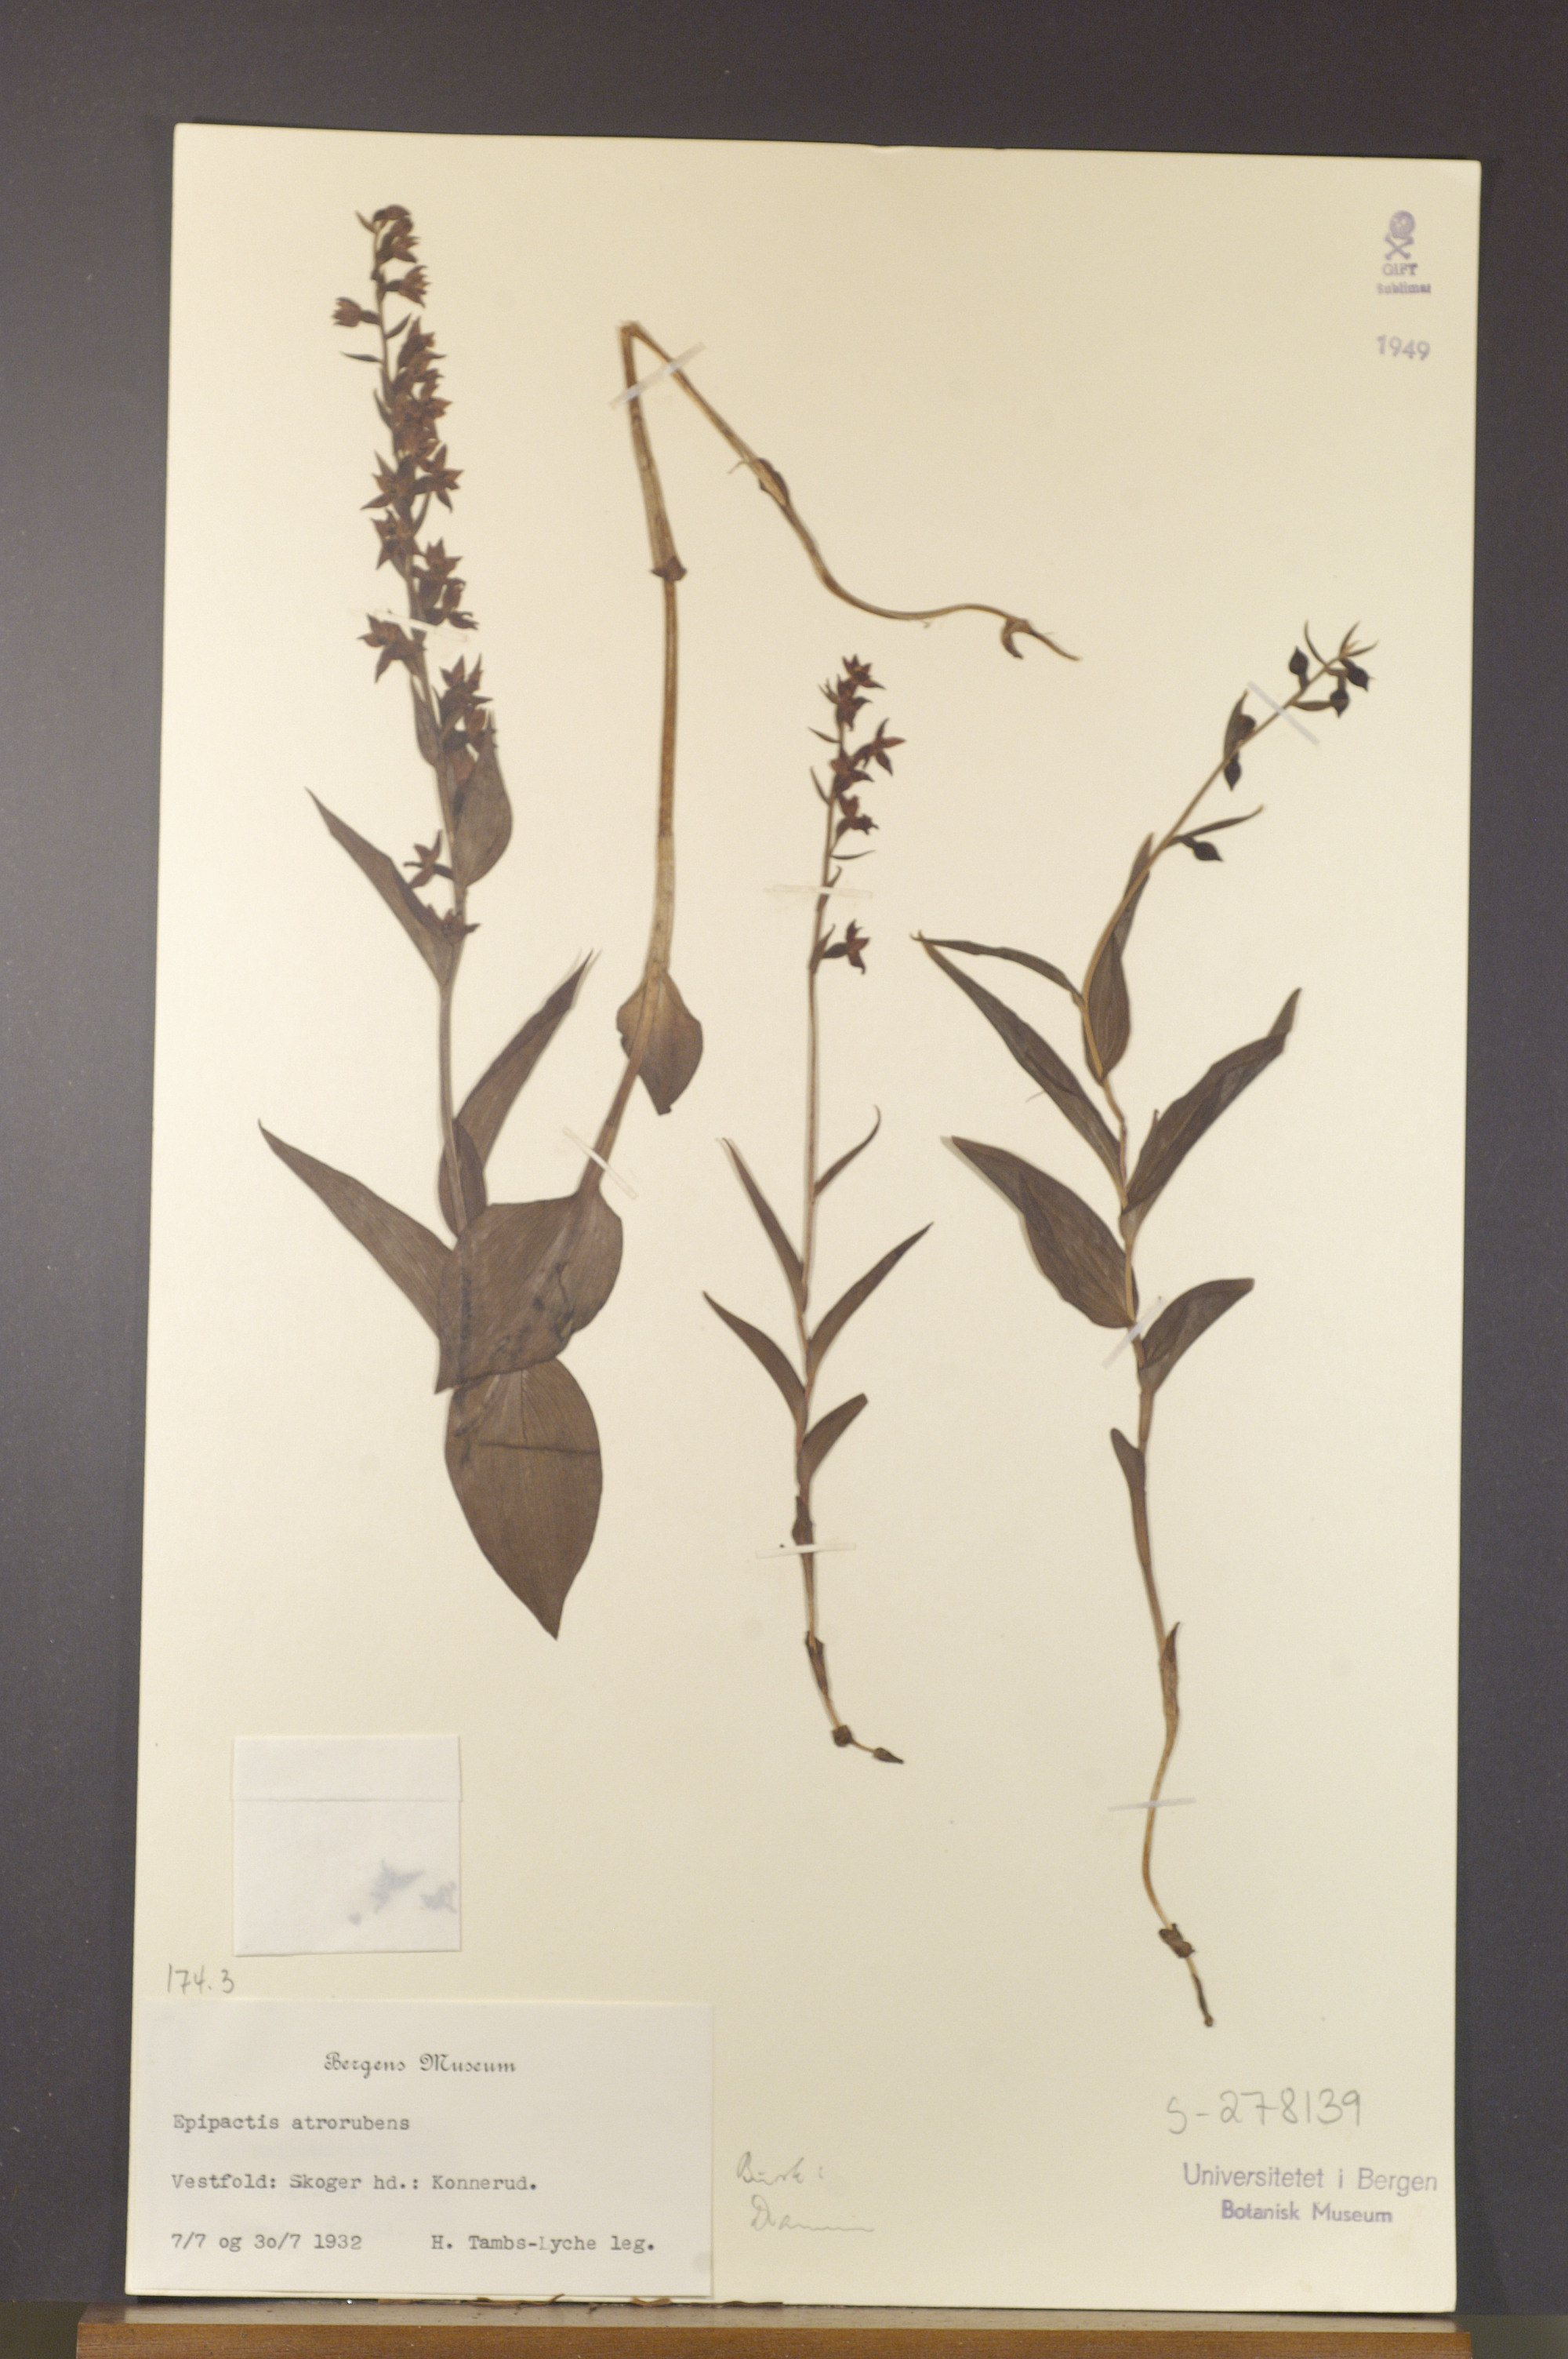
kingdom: Plantae
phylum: Tracheophyta
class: Liliopsida
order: Asparagales
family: Orchidaceae
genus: Epipactis
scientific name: Epipactis atrorubens
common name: Dark-red helleborine
